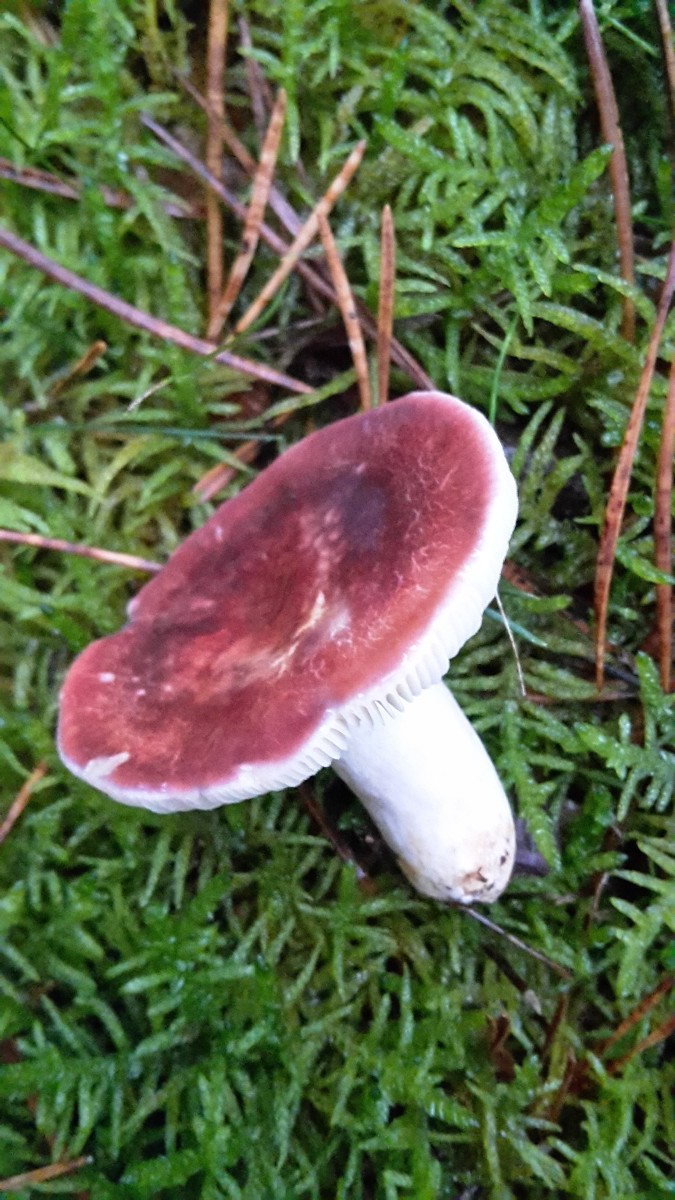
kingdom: Fungi
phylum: Basidiomycota
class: Agaricomycetes
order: Russulales
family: Russulaceae
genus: Russula
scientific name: Russula sardonia
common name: citronbladet skørhat
